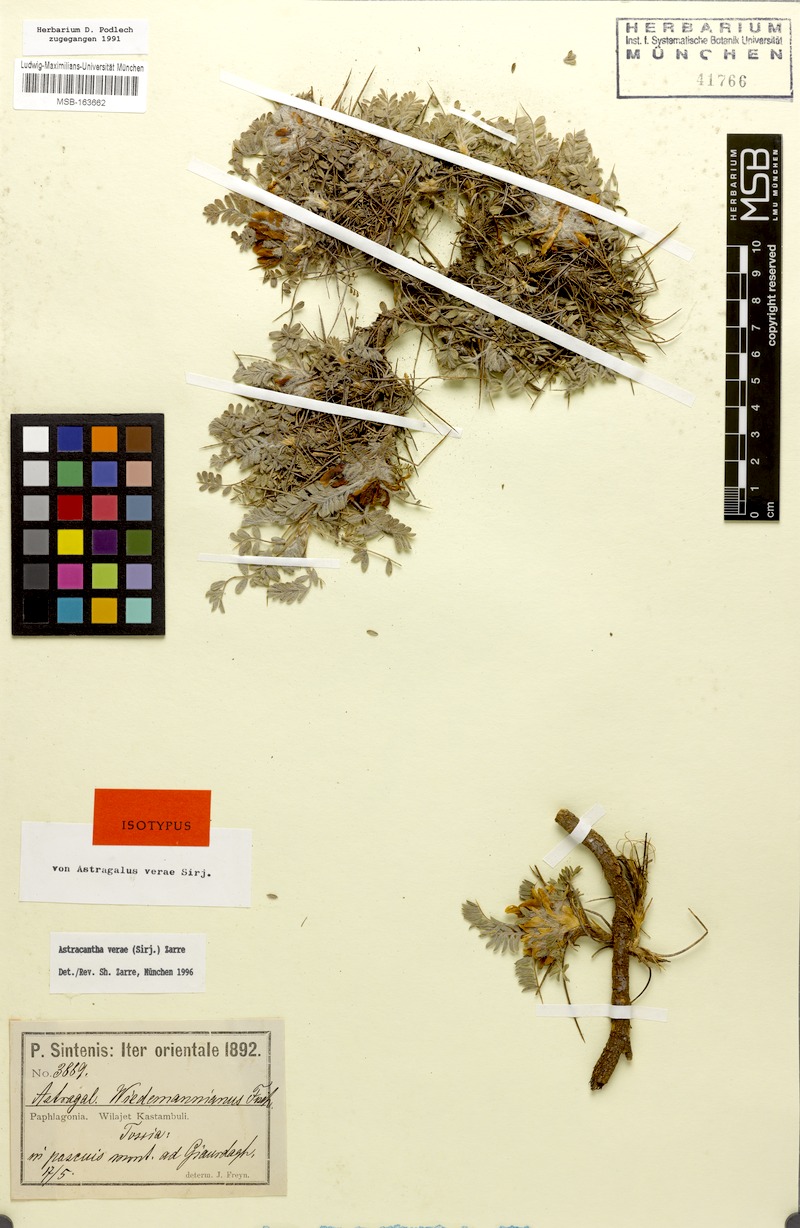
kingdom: Plantae
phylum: Tracheophyta
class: Magnoliopsida
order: Fabales
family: Fabaceae
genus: Astragalus
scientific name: Astragalus verae
